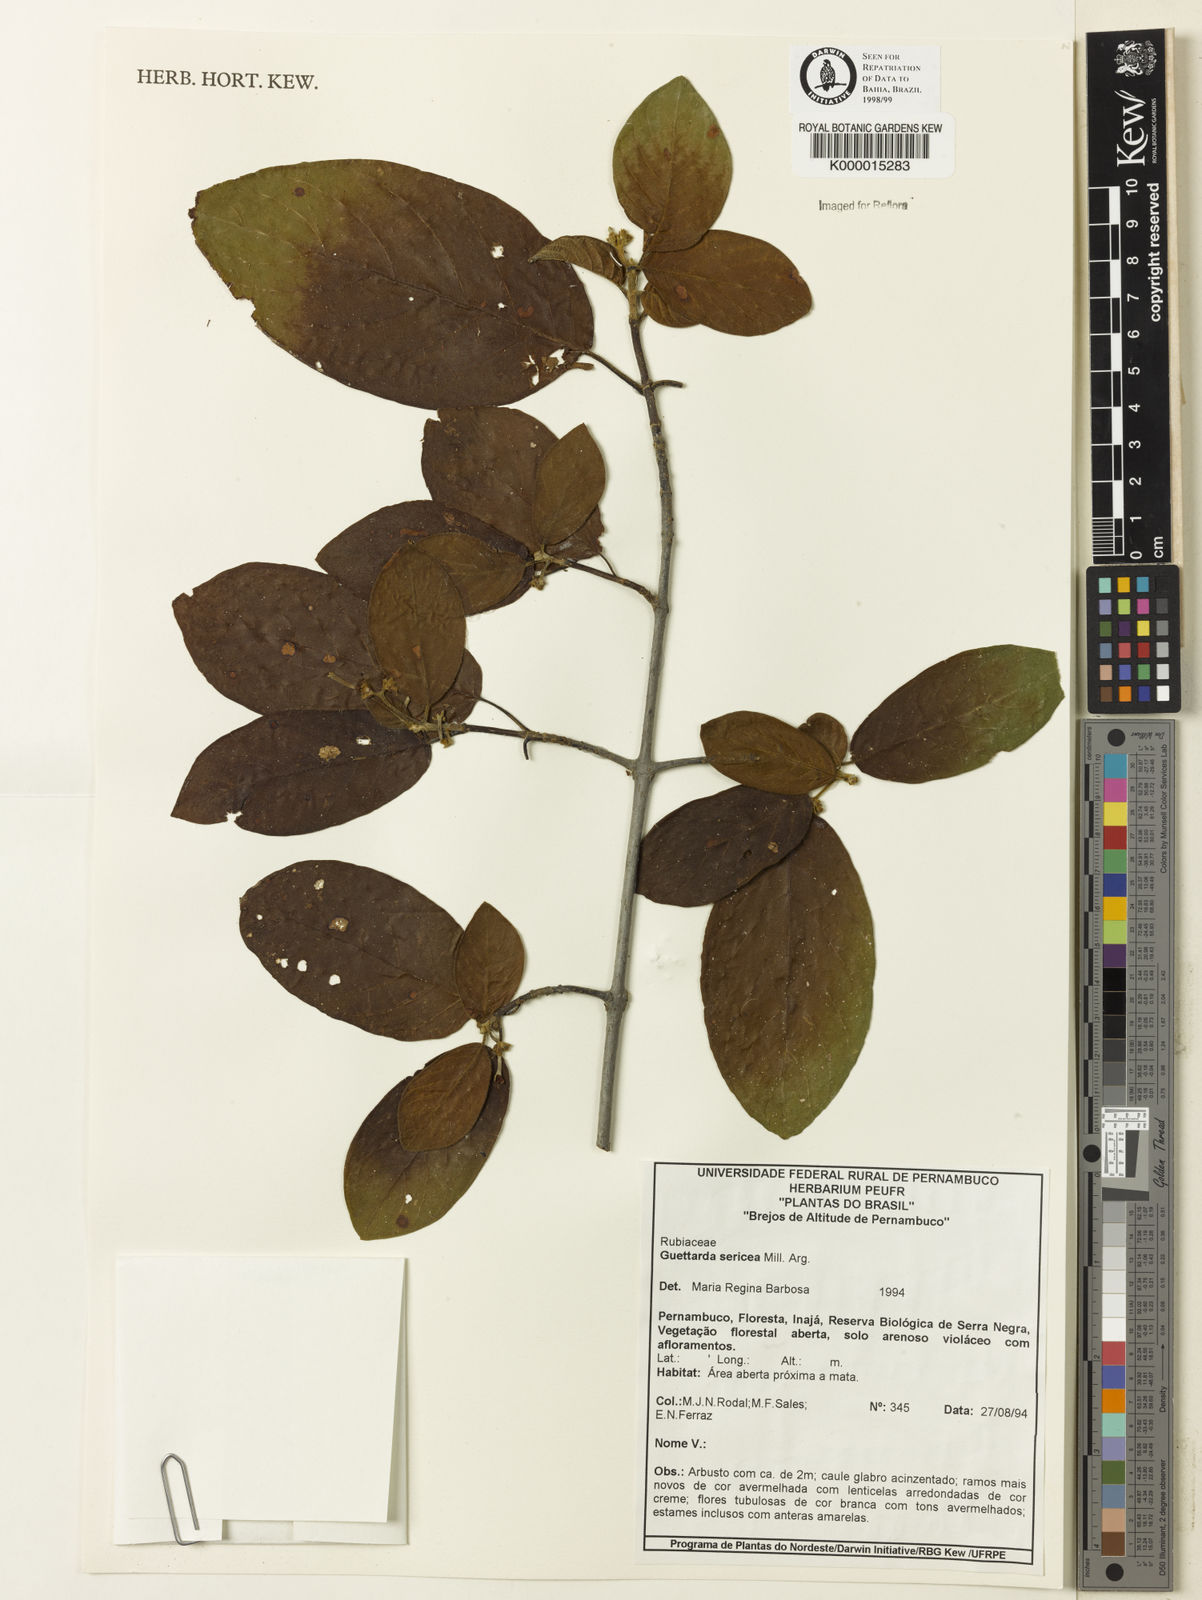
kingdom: Plantae
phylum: Tracheophyta
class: Magnoliopsida
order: Gentianales
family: Rubiaceae
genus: Guettarda
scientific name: Guettarda sericea
